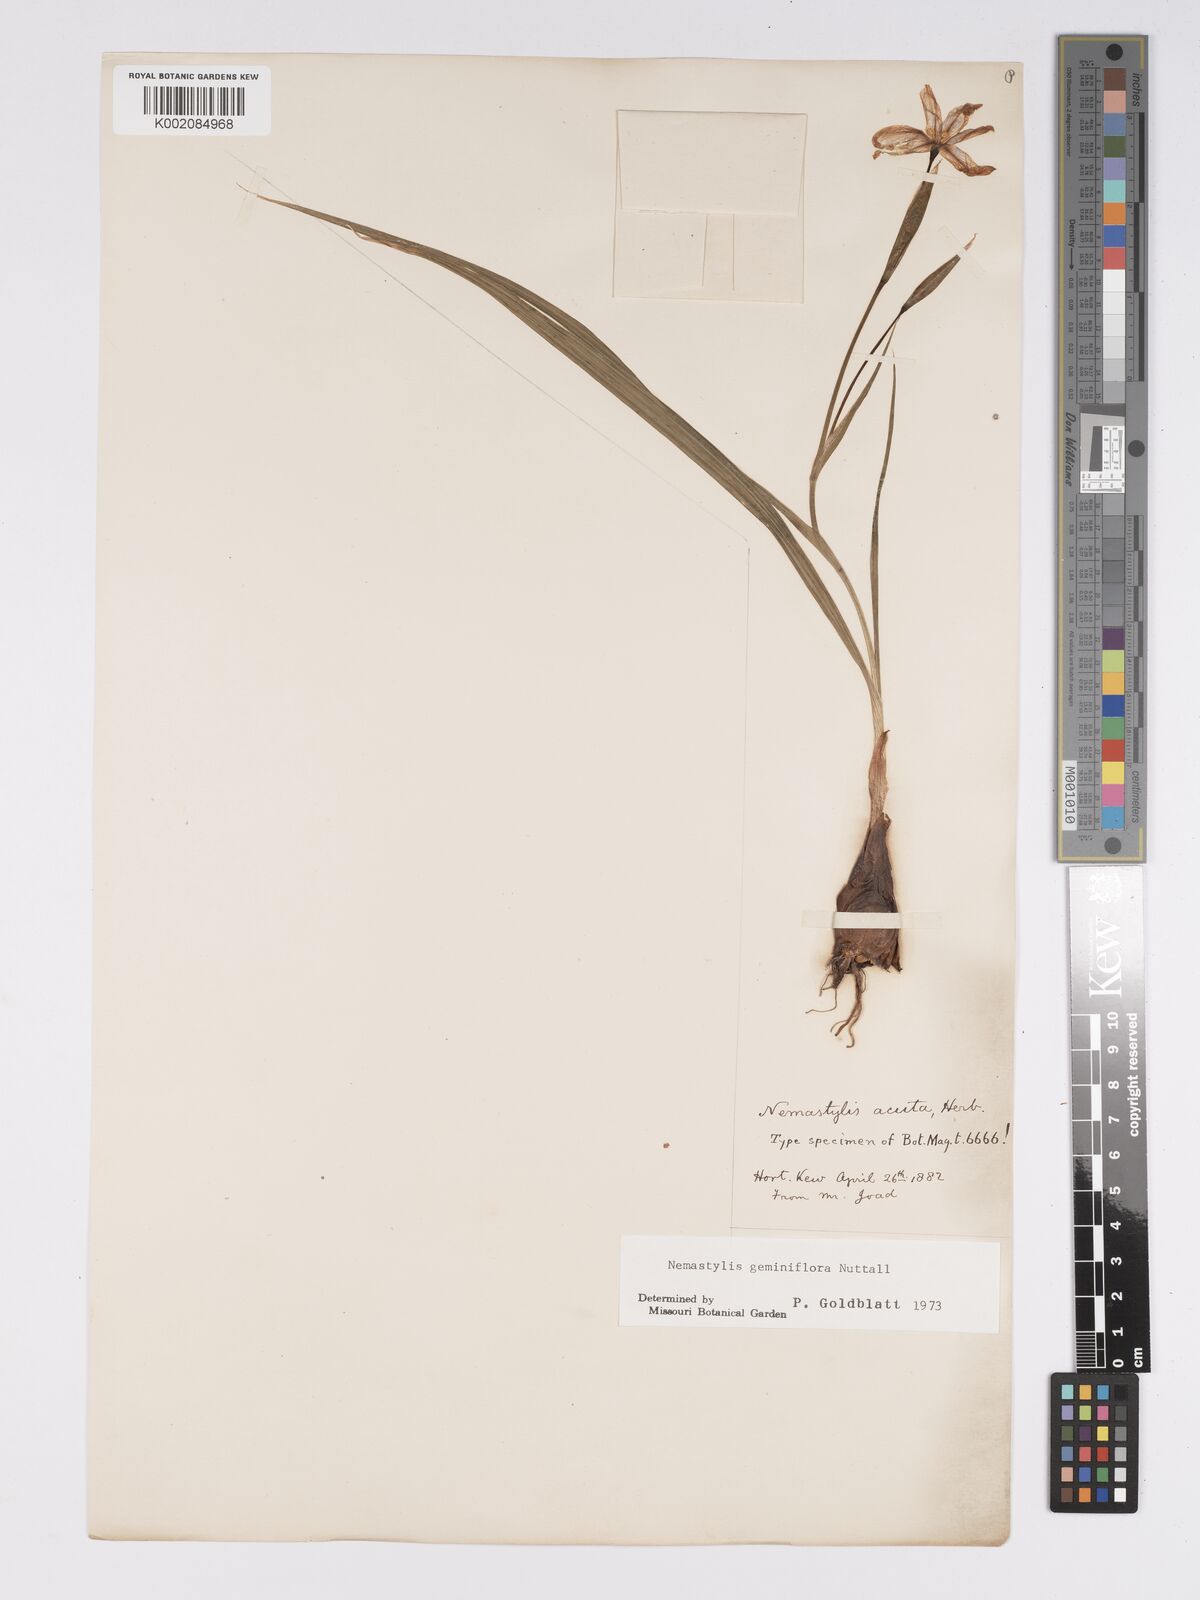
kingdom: Plantae
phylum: Tracheophyta
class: Liliopsida
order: Asparagales
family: Iridaceae
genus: Nemastylis
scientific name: Nemastylis geminiflora
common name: Prairie celestial
